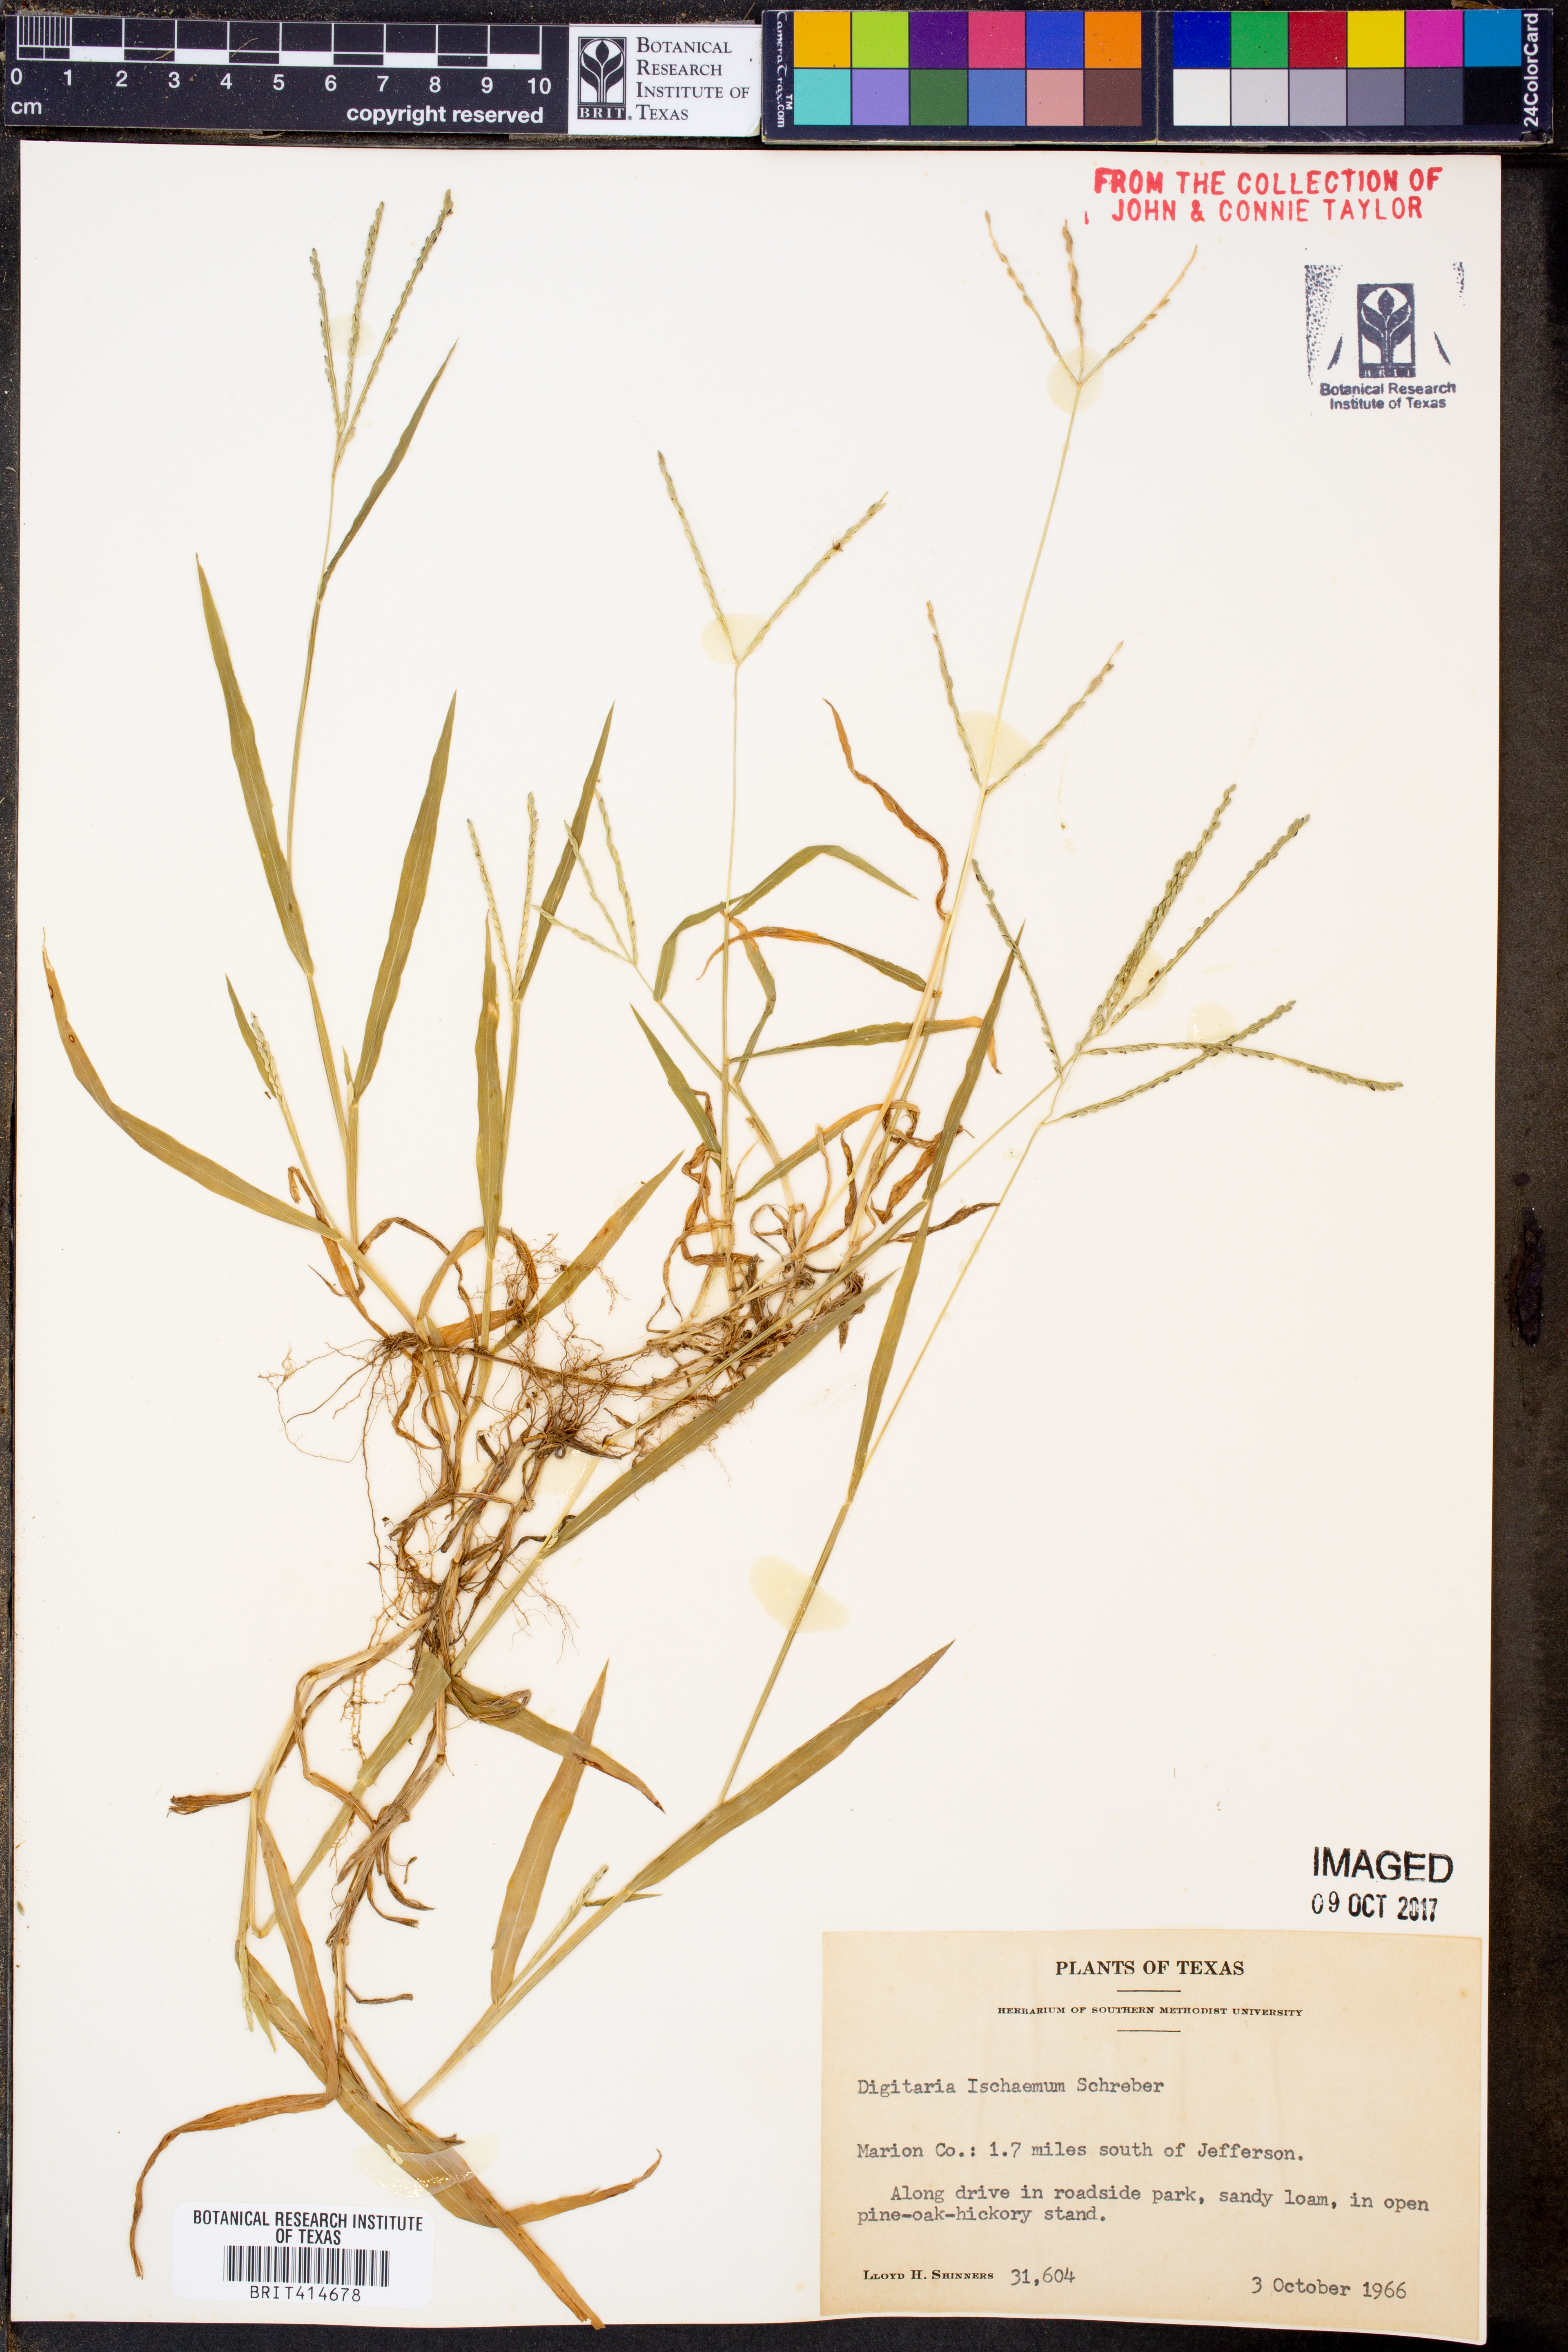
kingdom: Plantae
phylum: Tracheophyta
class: Liliopsida
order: Poales
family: Poaceae
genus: Digitaria
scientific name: Digitaria ischaemum
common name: Smooth crabgrass
